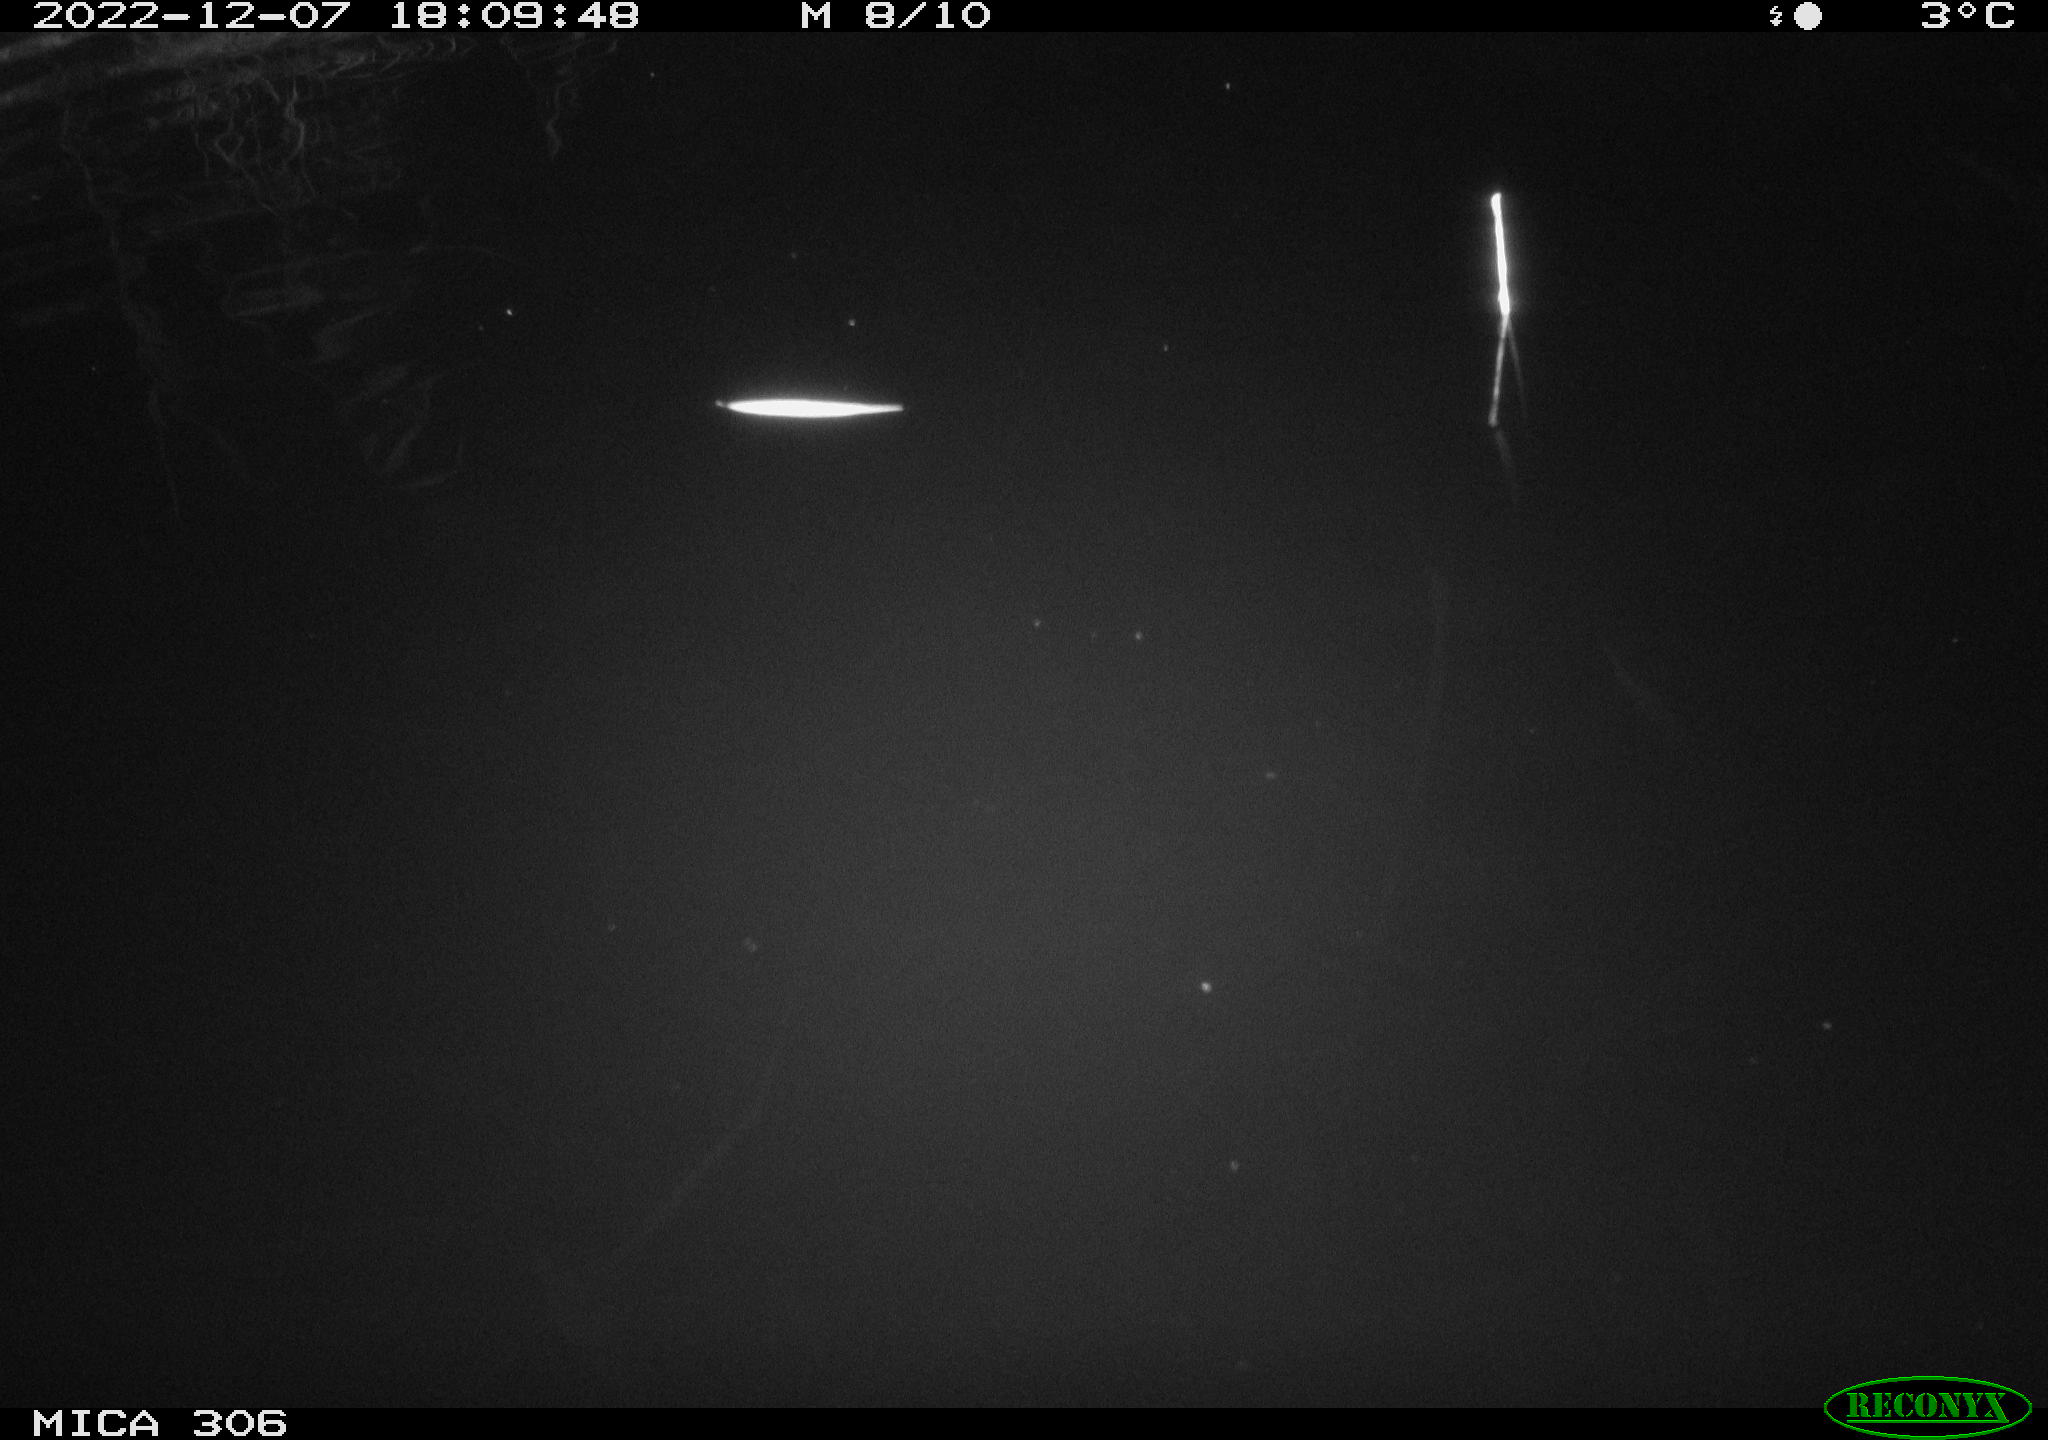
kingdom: Animalia
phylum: Chordata
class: Mammalia
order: Rodentia
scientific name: Rodentia
